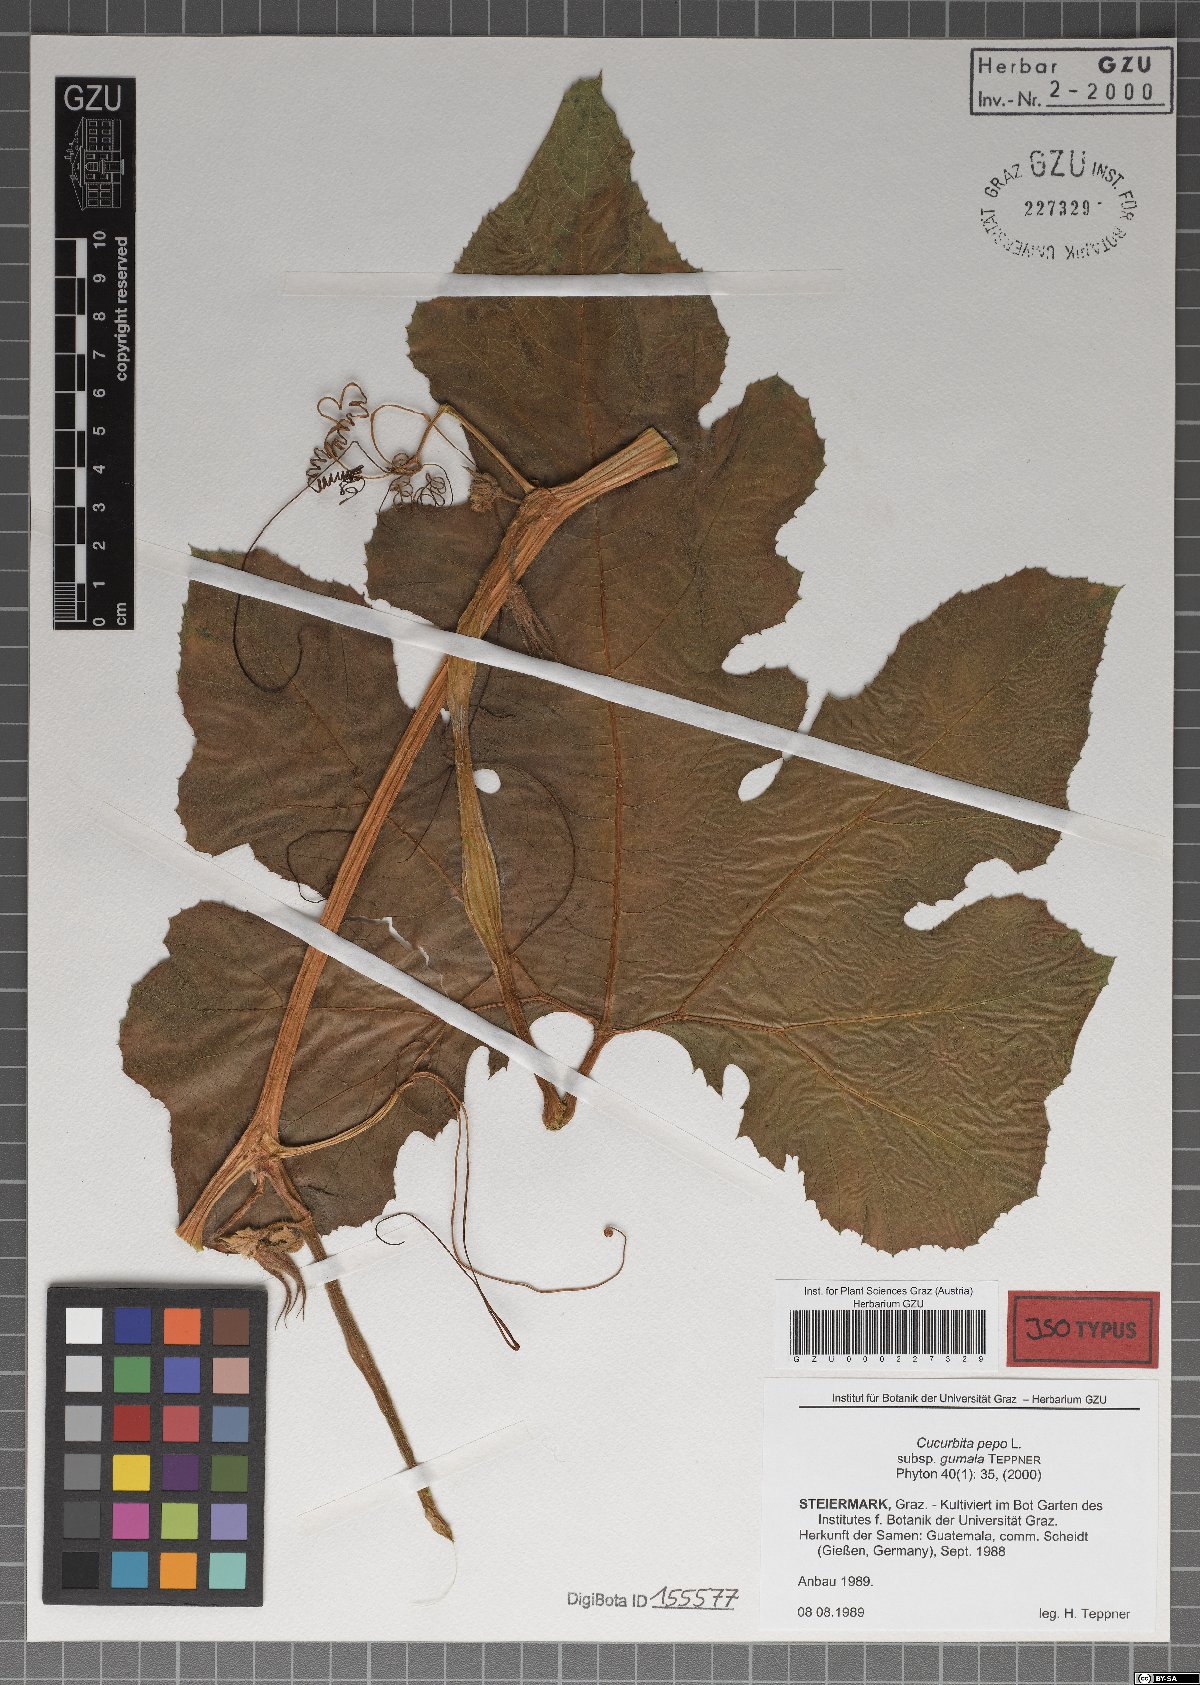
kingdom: Plantae
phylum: Tracheophyta
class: Magnoliopsida
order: Cucurbitales
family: Cucurbitaceae
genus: Cucurbita
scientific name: Cucurbita pepo
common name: Marrow
